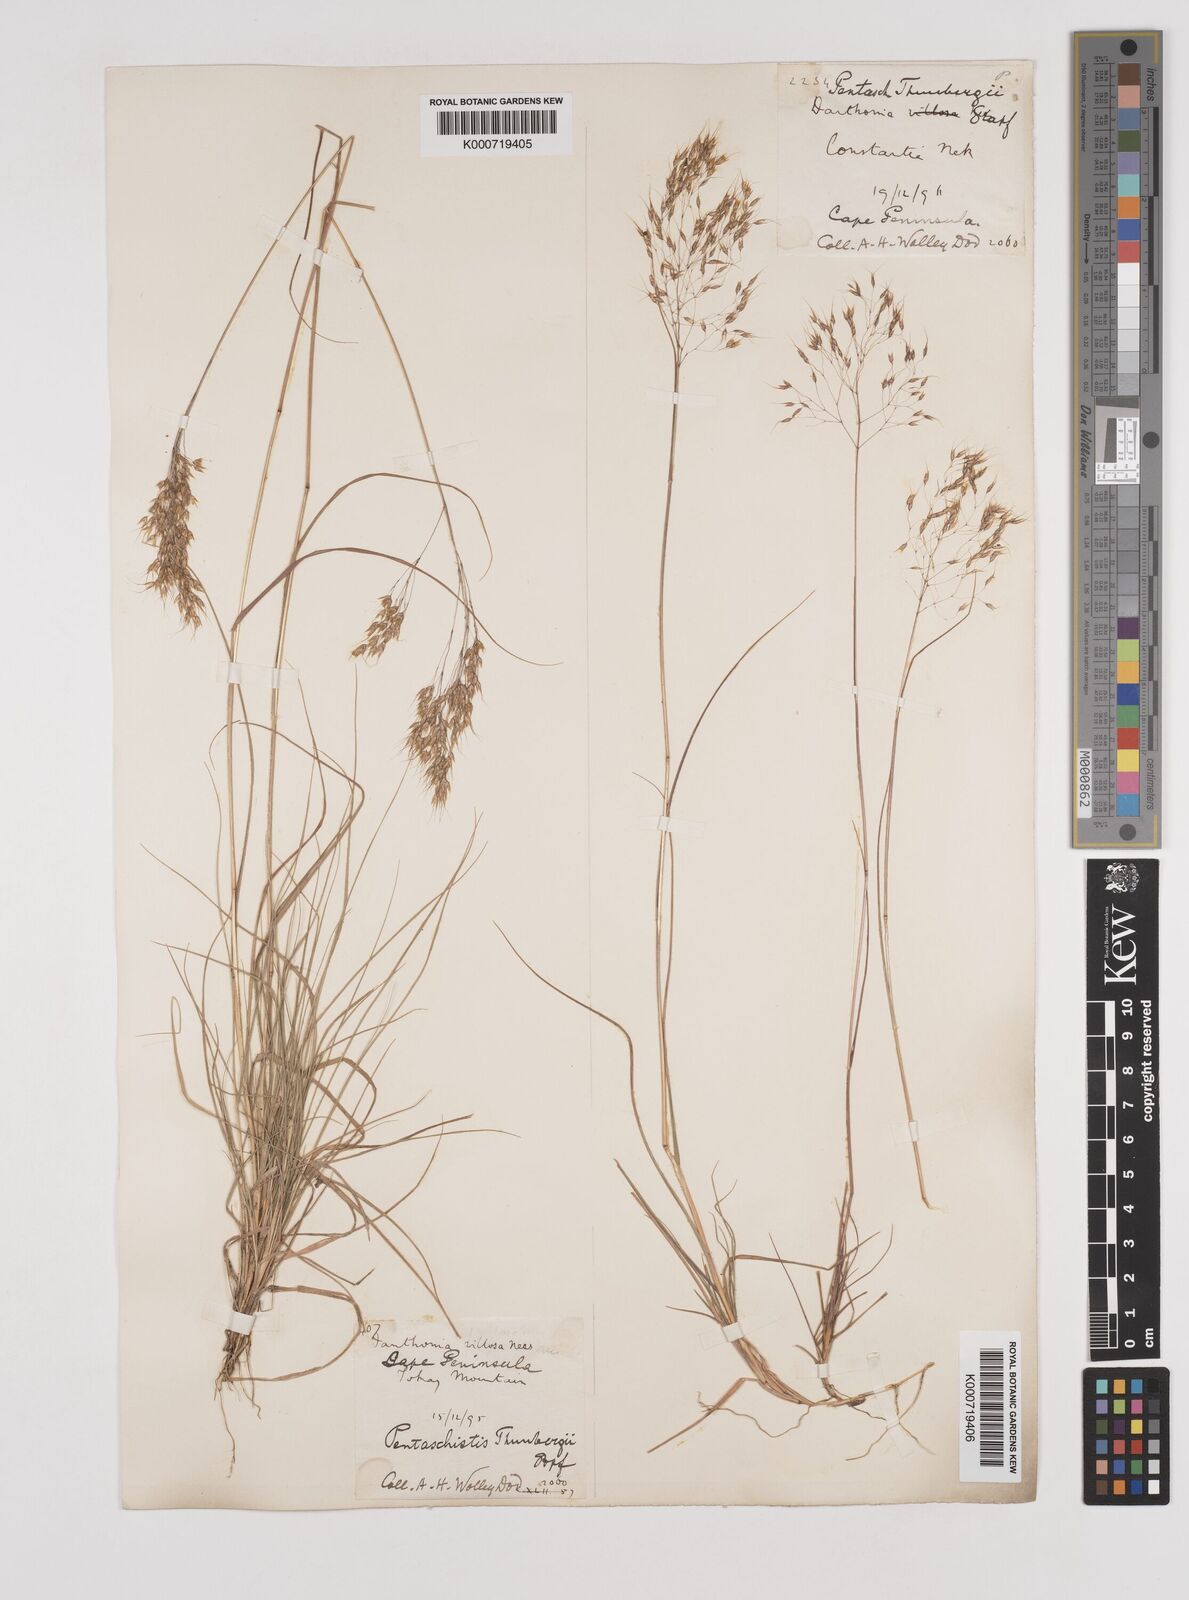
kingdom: Plantae
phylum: Tracheophyta
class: Liliopsida
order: Poales
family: Poaceae
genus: Pentameris
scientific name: Pentameris triseta
